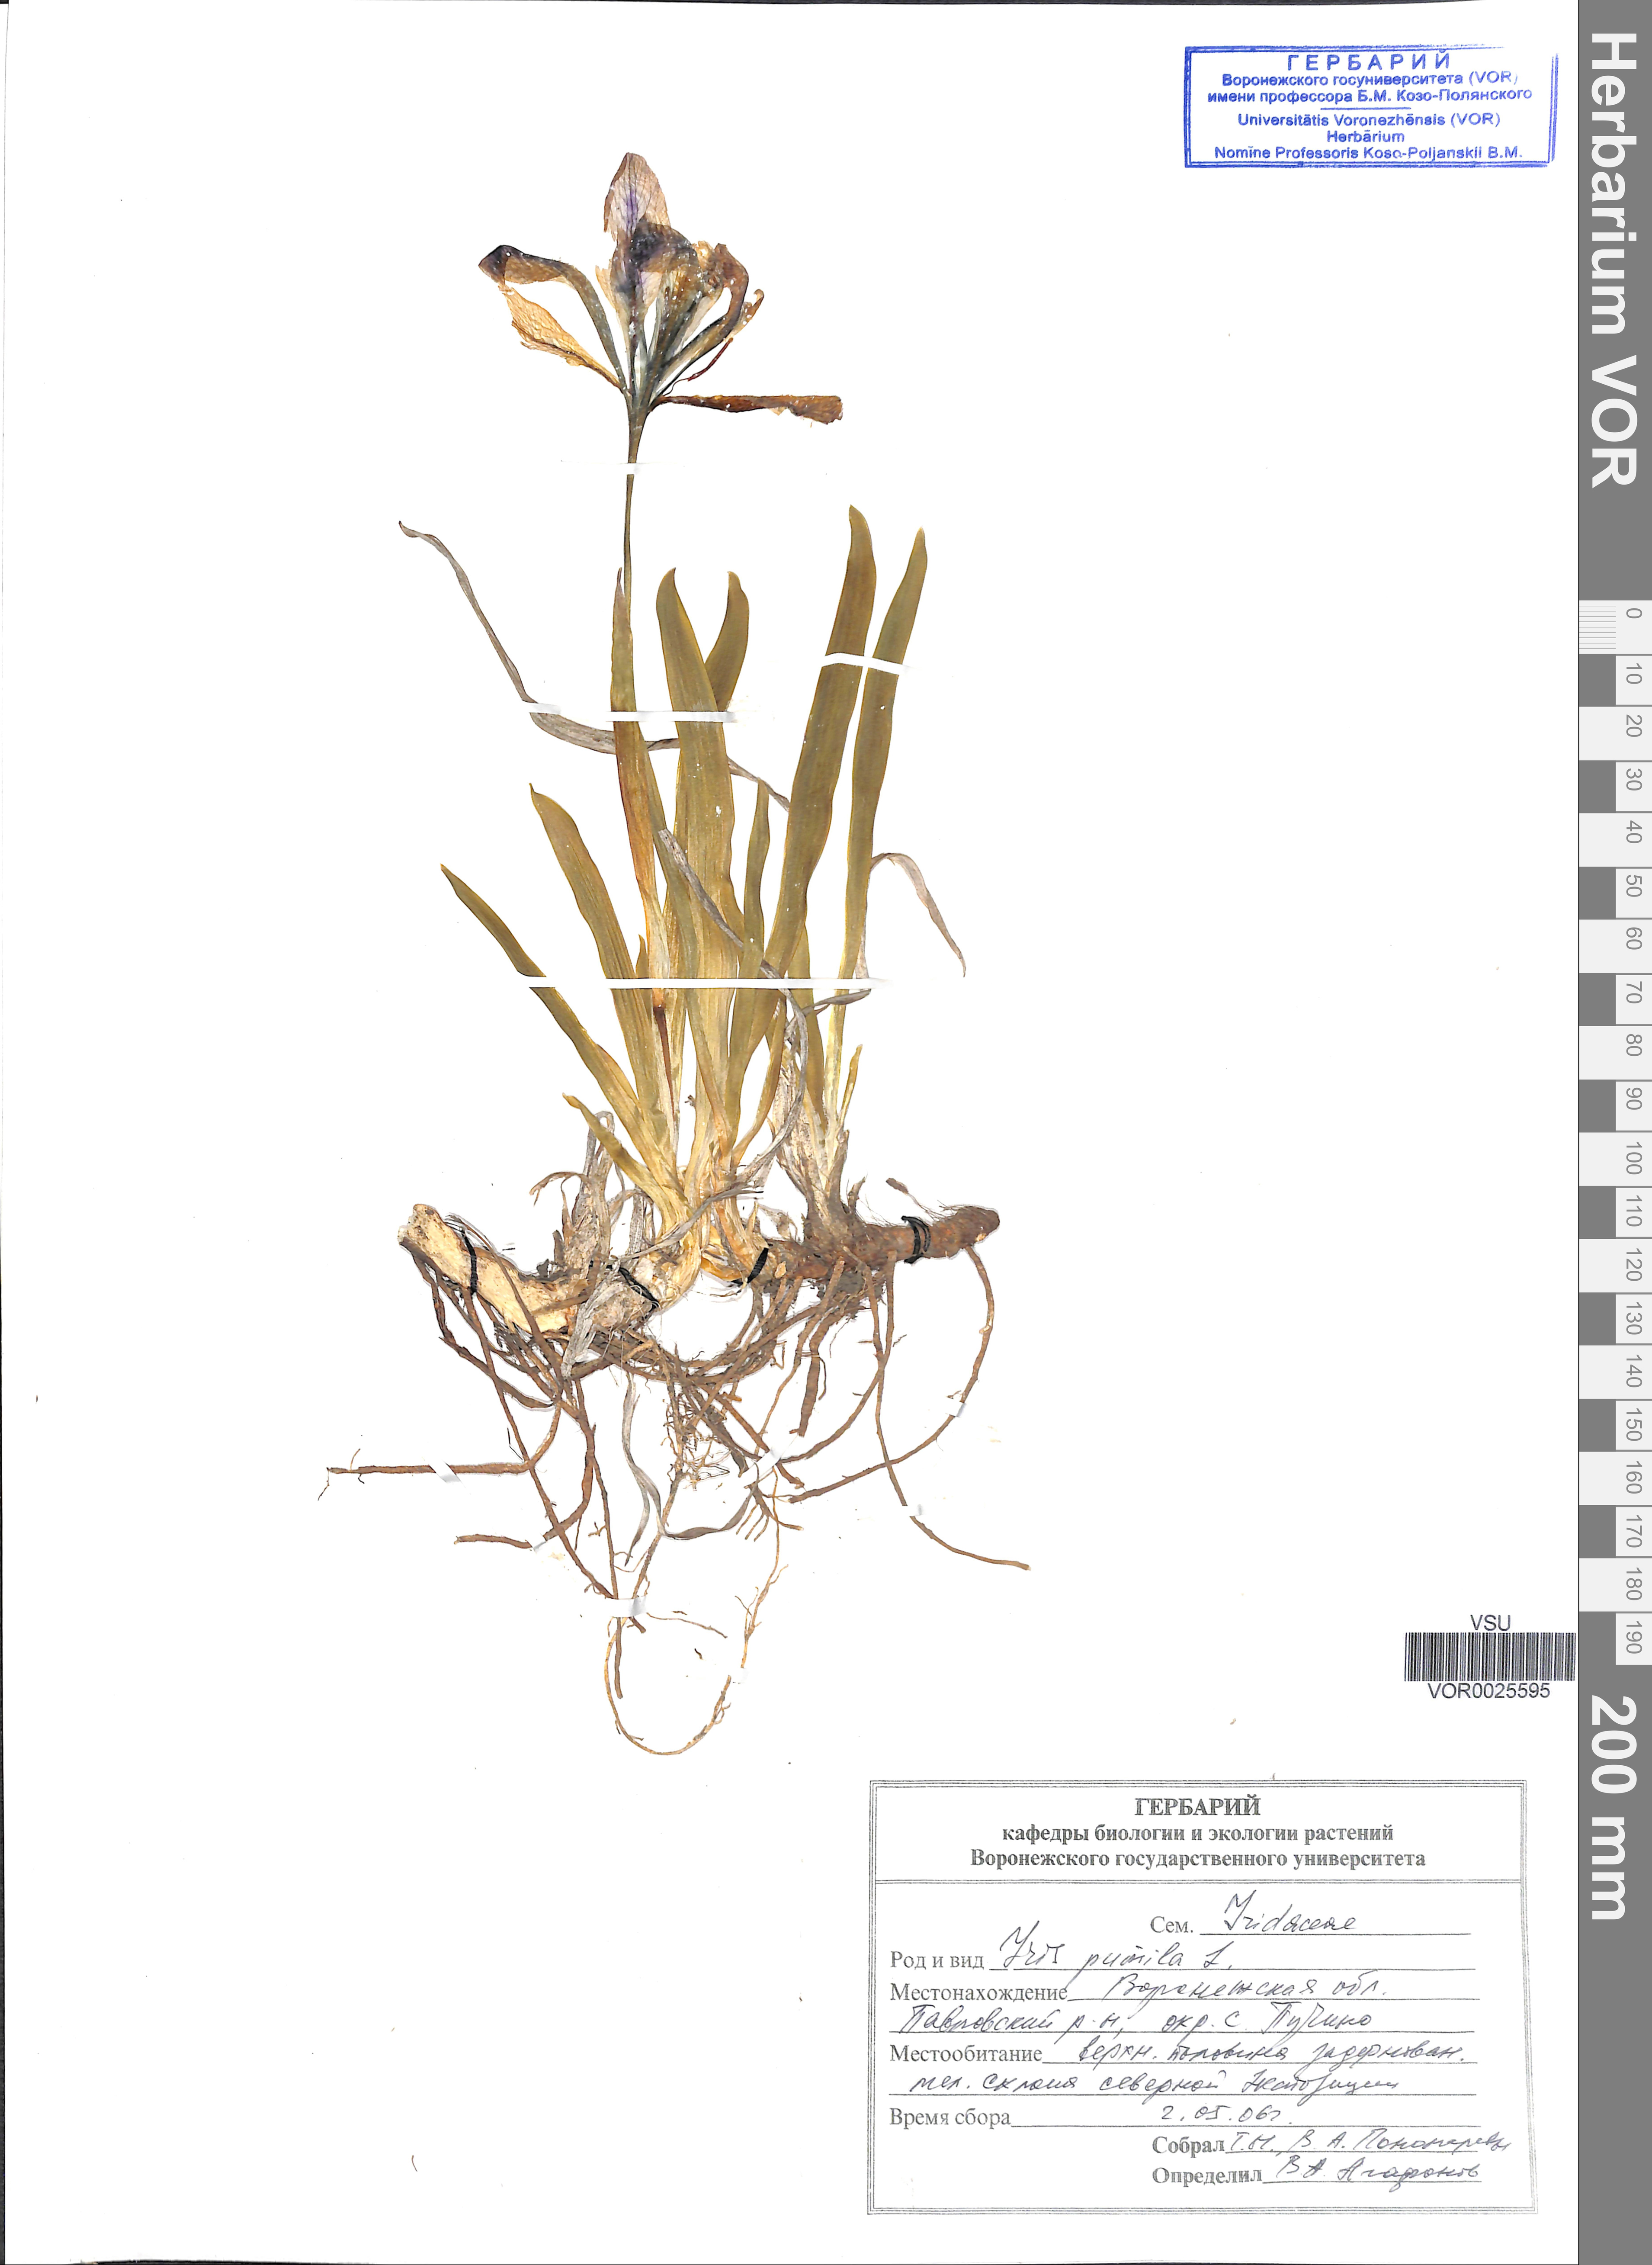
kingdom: Plantae
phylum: Tracheophyta
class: Liliopsida
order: Asparagales
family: Iridaceae
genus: Iris
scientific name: Iris pumila
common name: Dwarf iris
